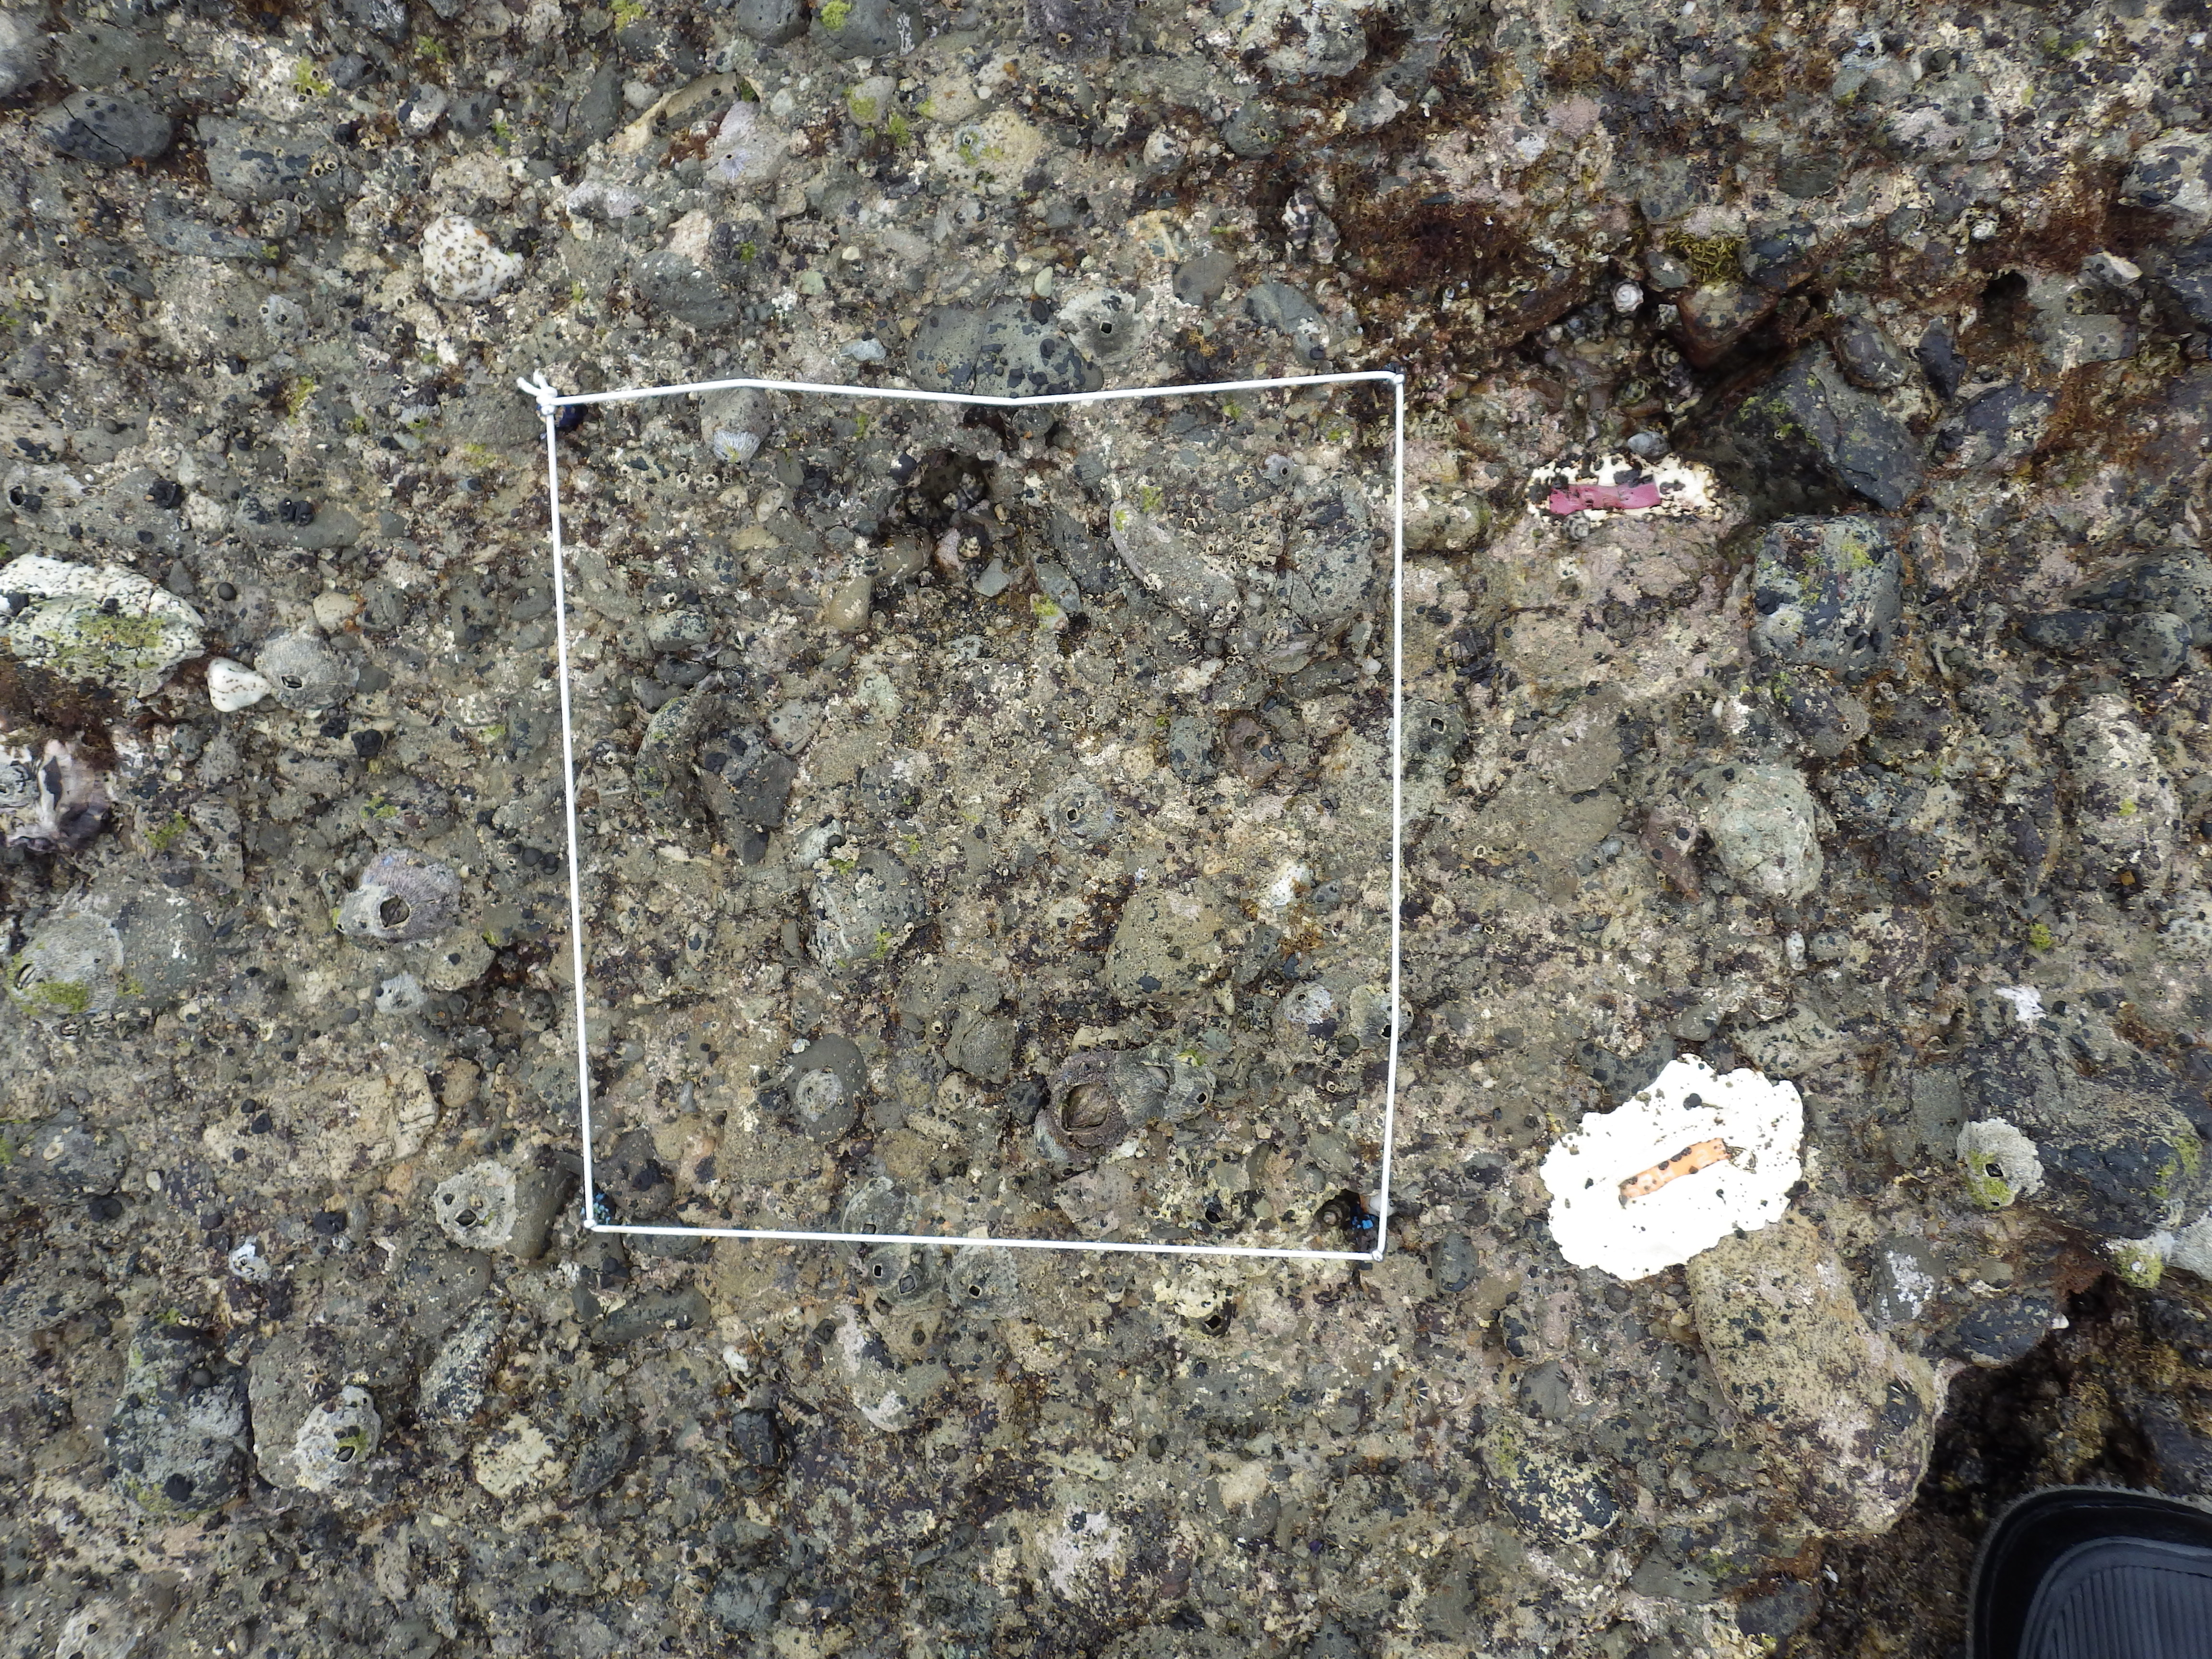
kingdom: Animalia
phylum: Arthropoda
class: Maxillopoda
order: Sessilia
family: Chthamalidae
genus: Chthamalus
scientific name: Chthamalus challengeri
